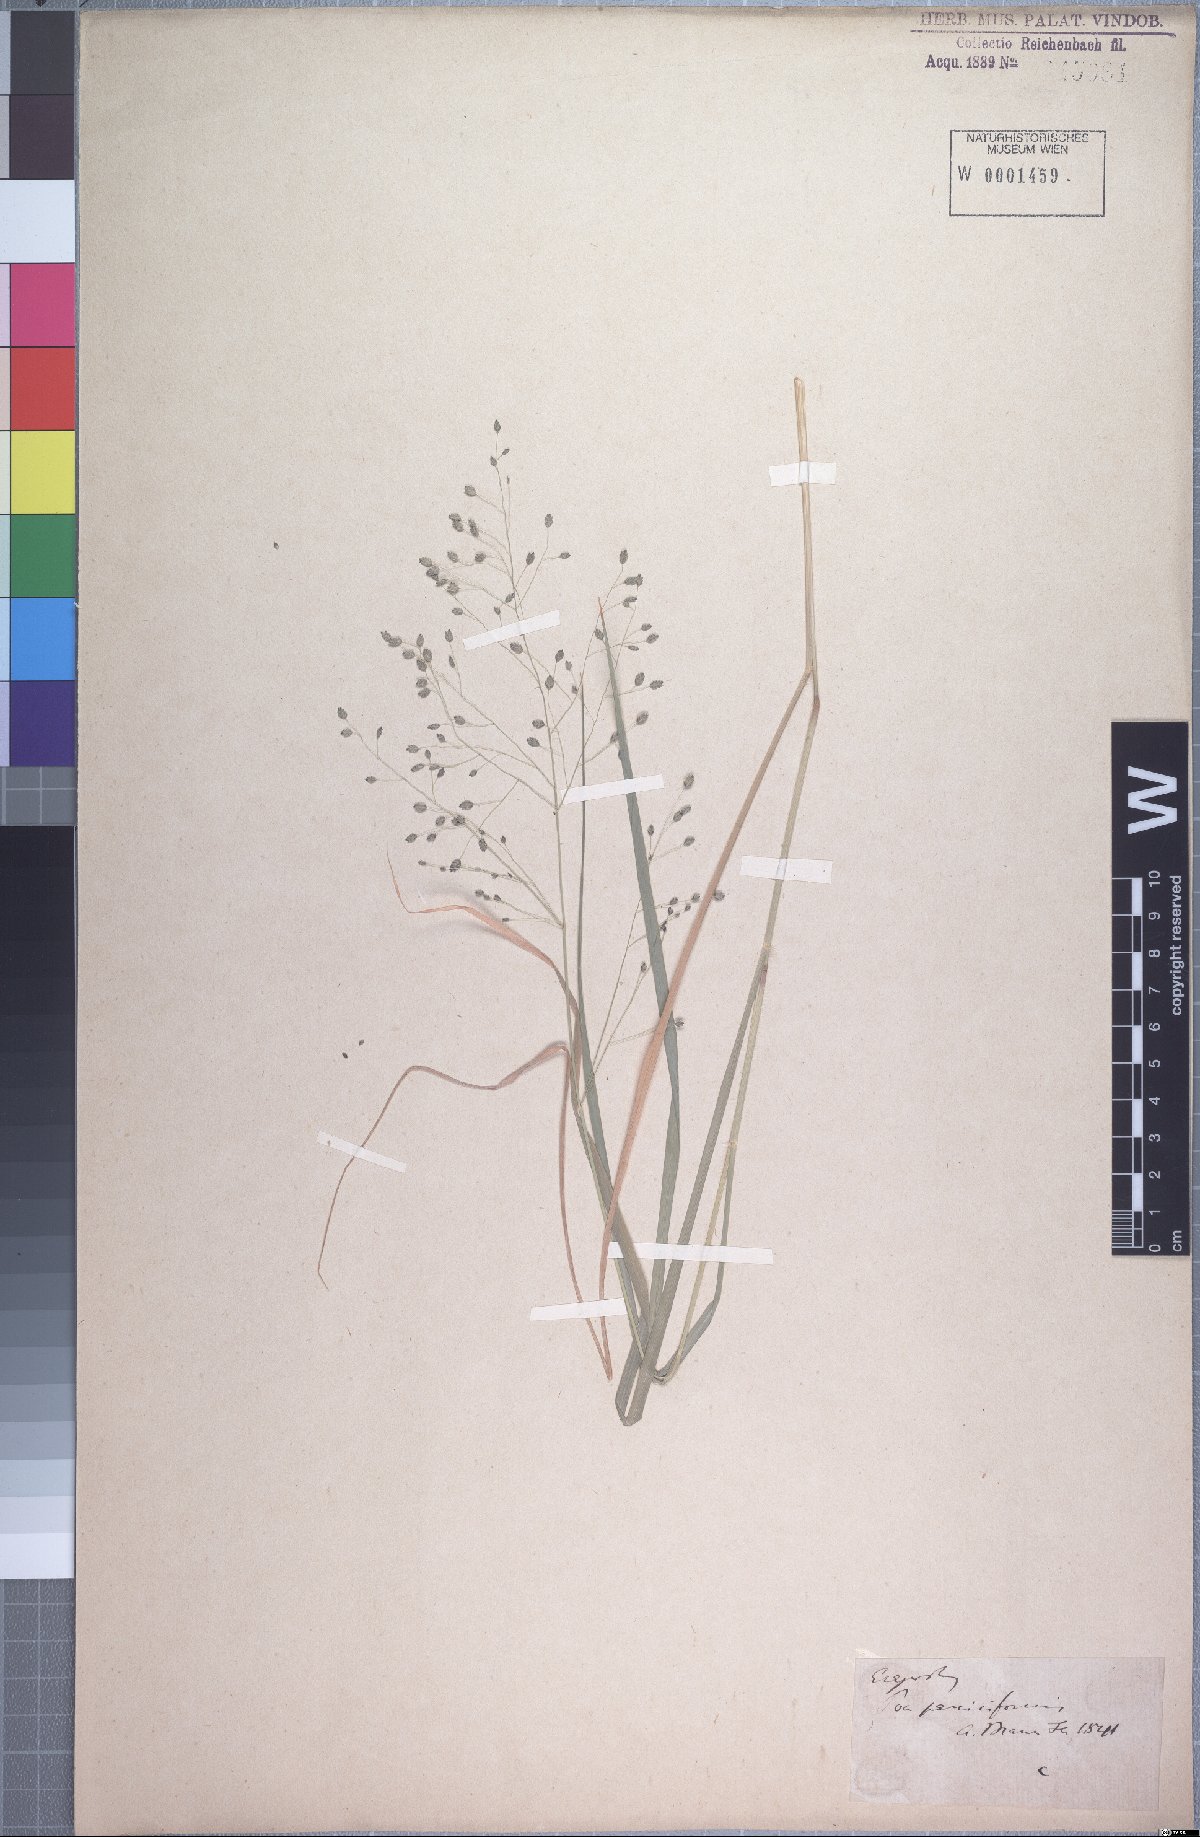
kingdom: Plantae
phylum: Tracheophyta
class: Liliopsida
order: Poales
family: Poaceae
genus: Eragrostis
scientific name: Eragrostis paniciformis
